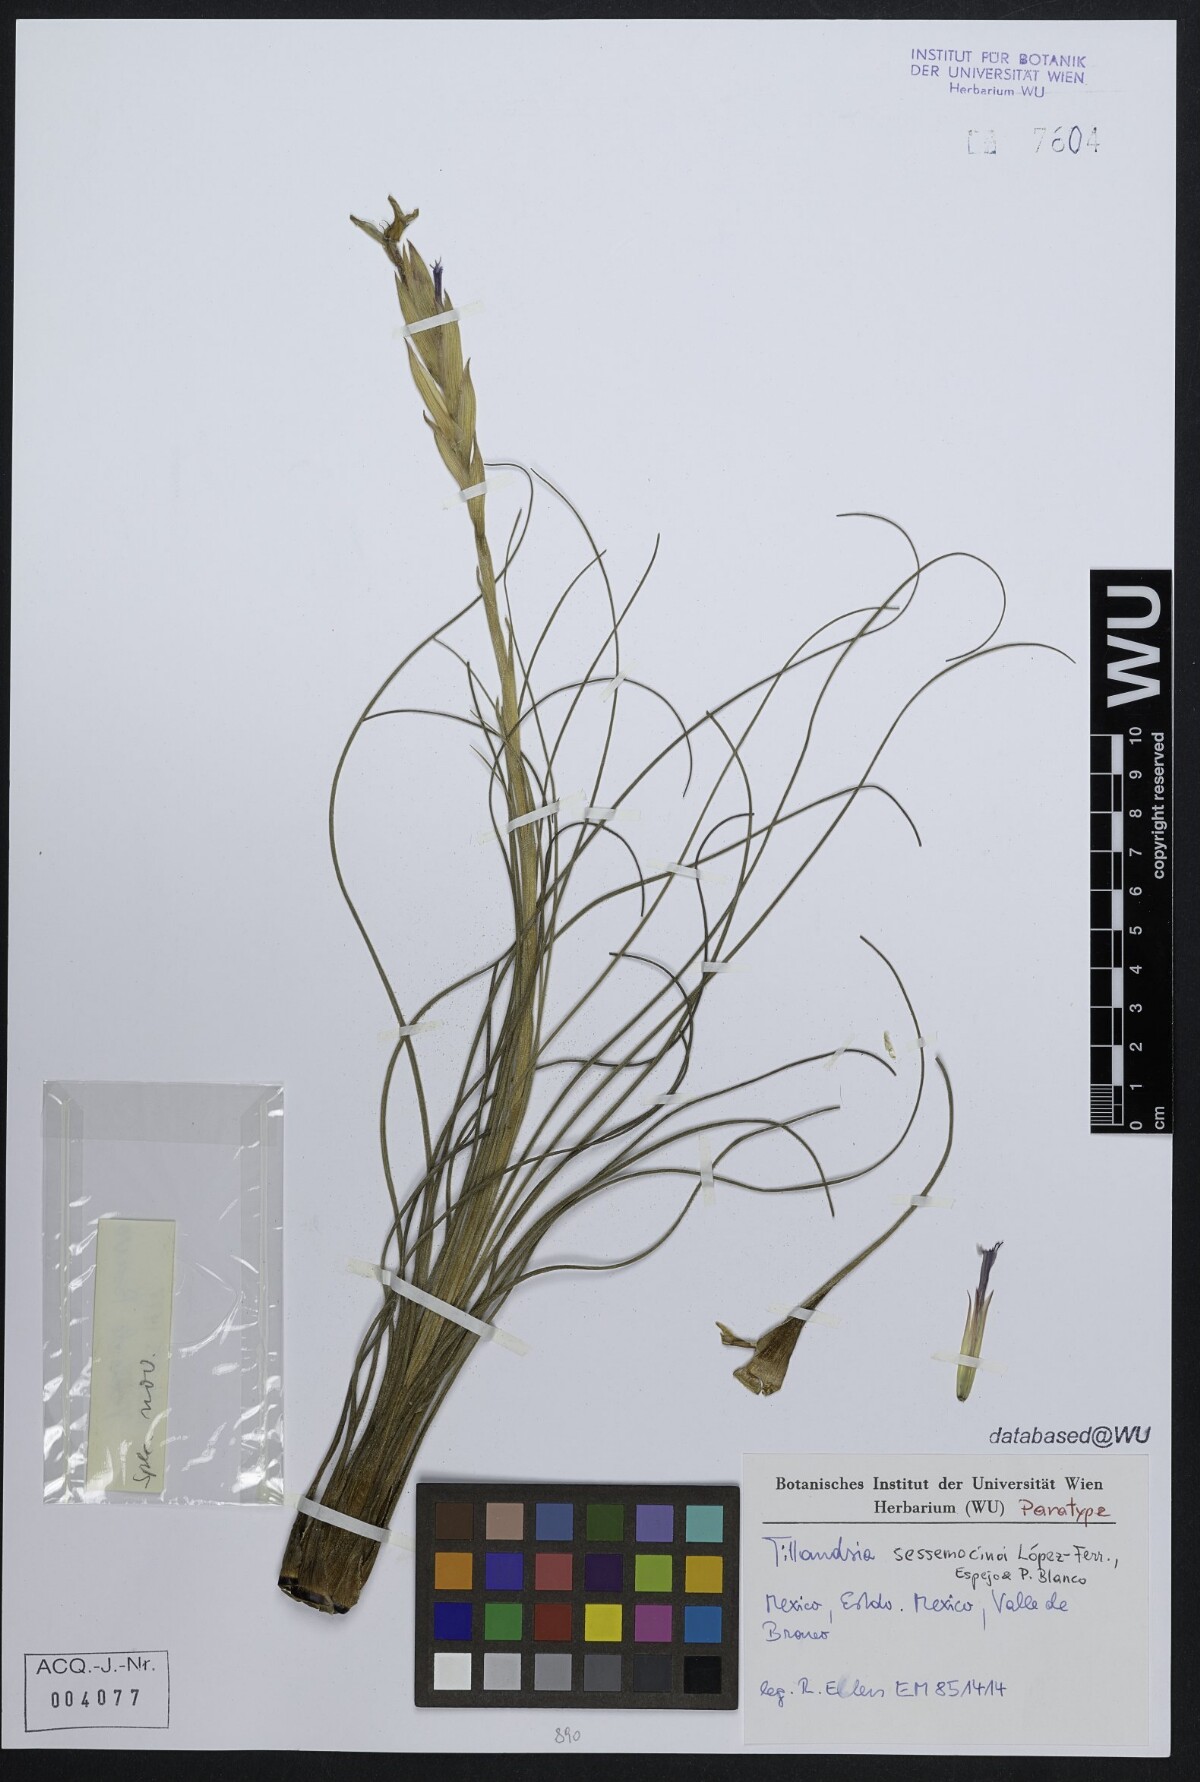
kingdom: Plantae
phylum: Tracheophyta
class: Liliopsida
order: Poales
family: Bromeliaceae
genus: Tillandsia
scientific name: Tillandsia sessemocinoi
